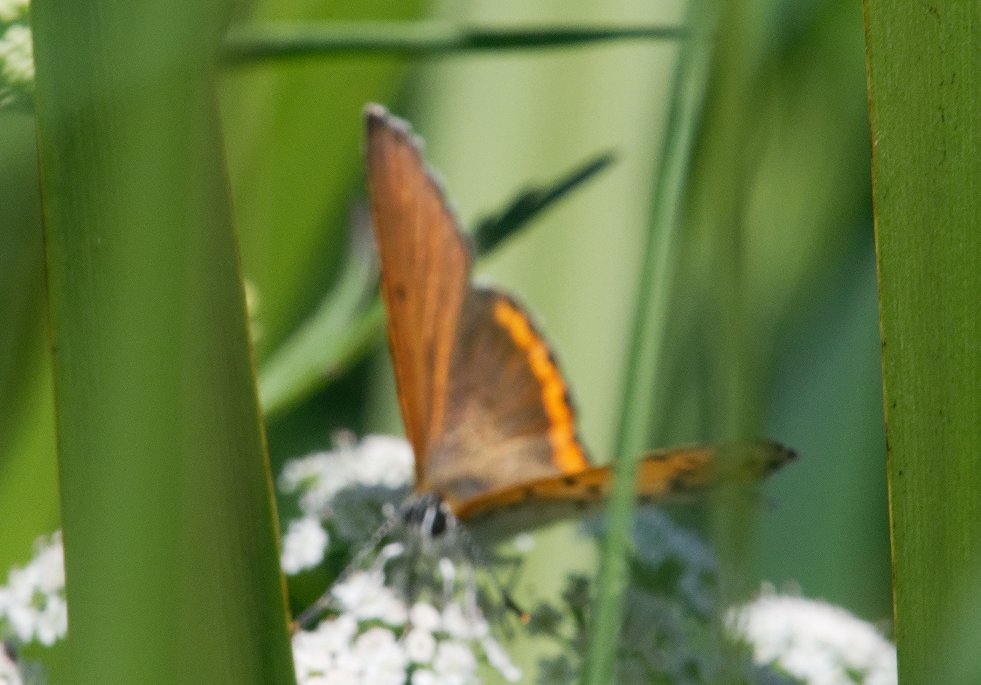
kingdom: Animalia
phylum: Arthropoda
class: Insecta
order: Lepidoptera
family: Sesiidae
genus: Sesia
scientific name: Sesia Lycaena hyllus
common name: Bronze Copper
